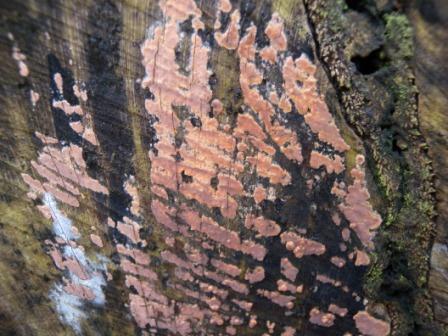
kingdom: Fungi
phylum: Basidiomycota
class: Agaricomycetes
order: Russulales
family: Peniophoraceae
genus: Peniophora
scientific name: Peniophora incarnata
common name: laksefarvet voksskind
